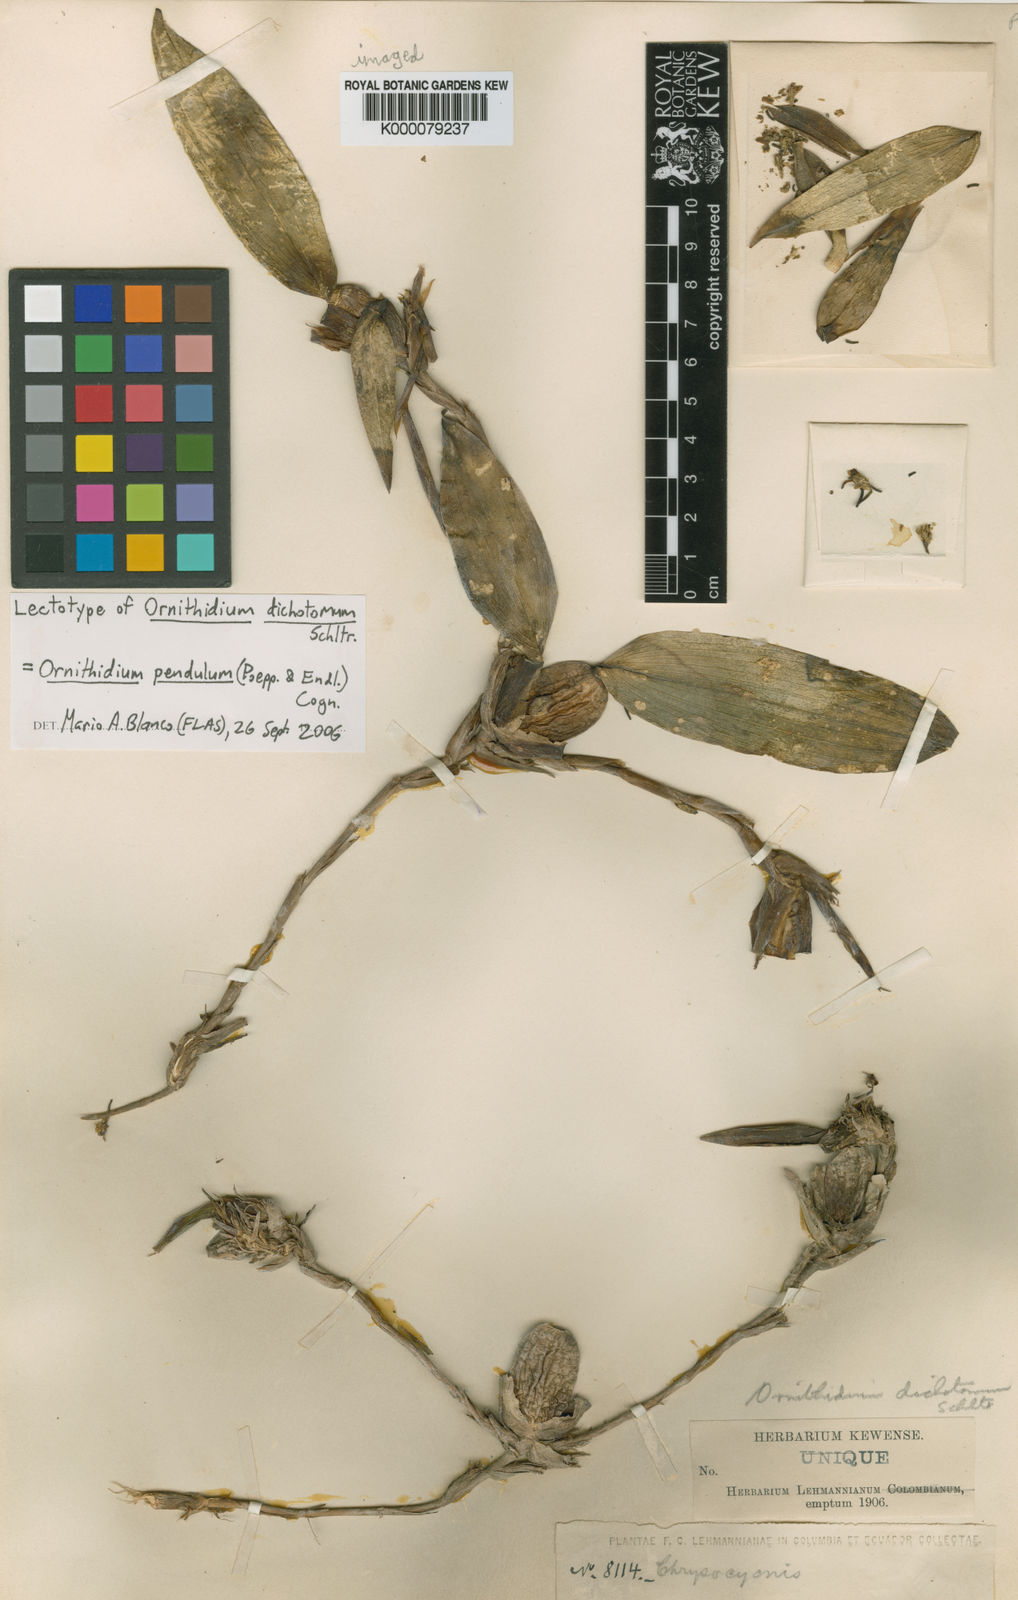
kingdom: Plantae
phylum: Tracheophyta
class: Liliopsida
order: Asparagales
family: Orchidaceae
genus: Maxillaria
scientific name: Maxillaria dolichophylla
